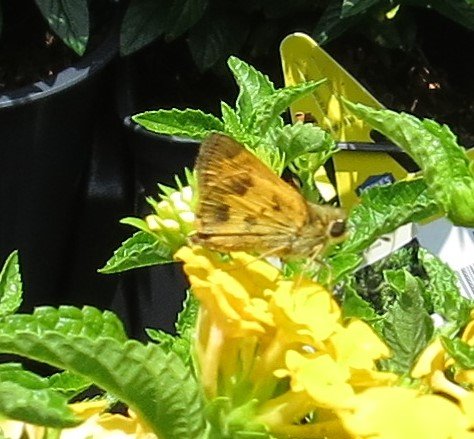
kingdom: Animalia
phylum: Arthropoda
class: Insecta
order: Lepidoptera
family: Hesperiidae
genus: Polites
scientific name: Polites vibex
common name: Whirlabout
